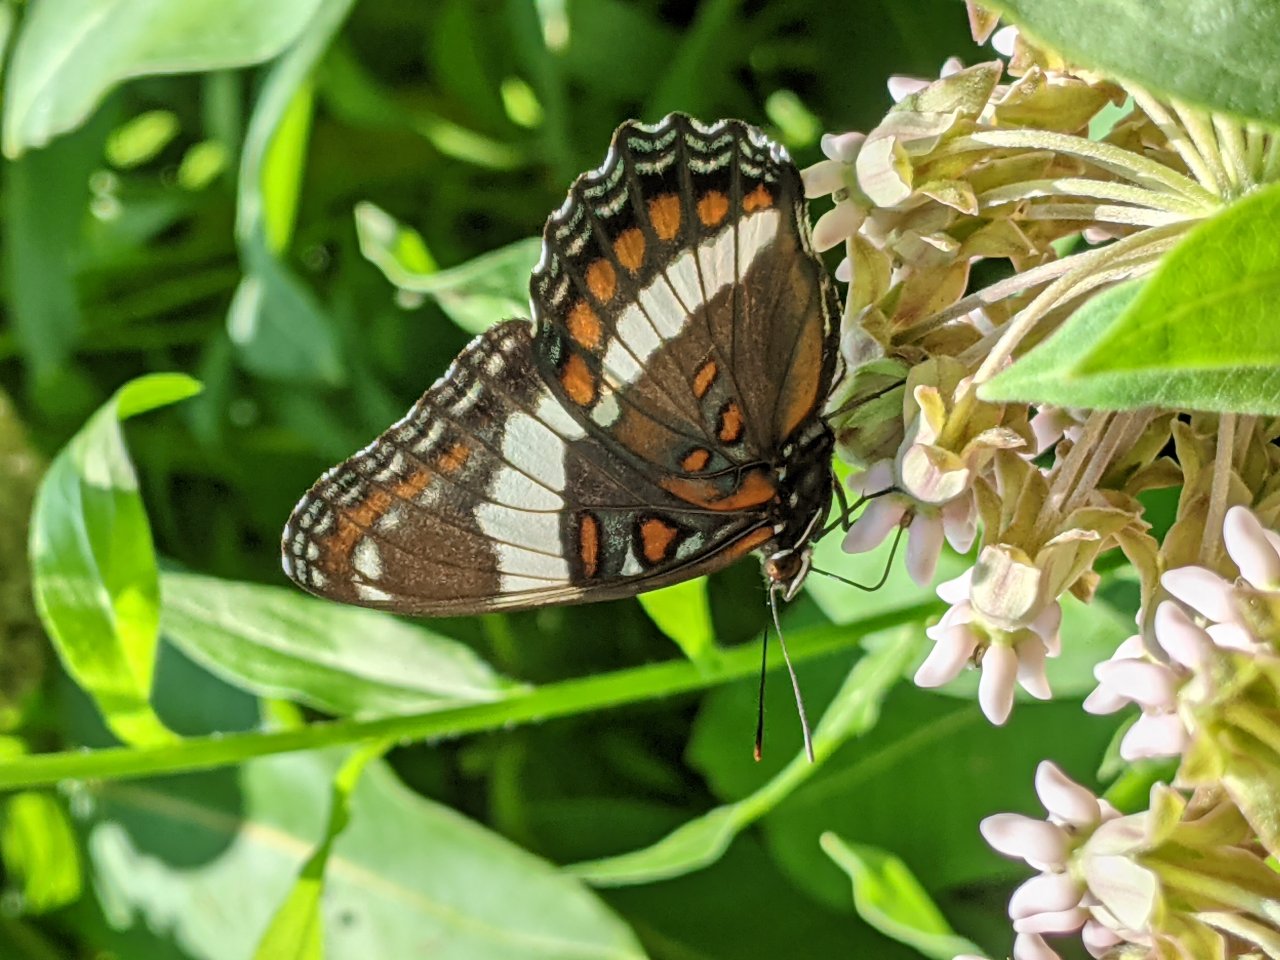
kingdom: Animalia
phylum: Arthropoda
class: Insecta
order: Lepidoptera
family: Nymphalidae
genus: Limenitis
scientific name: Limenitis arthemis
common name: Red-spotted Admiral
